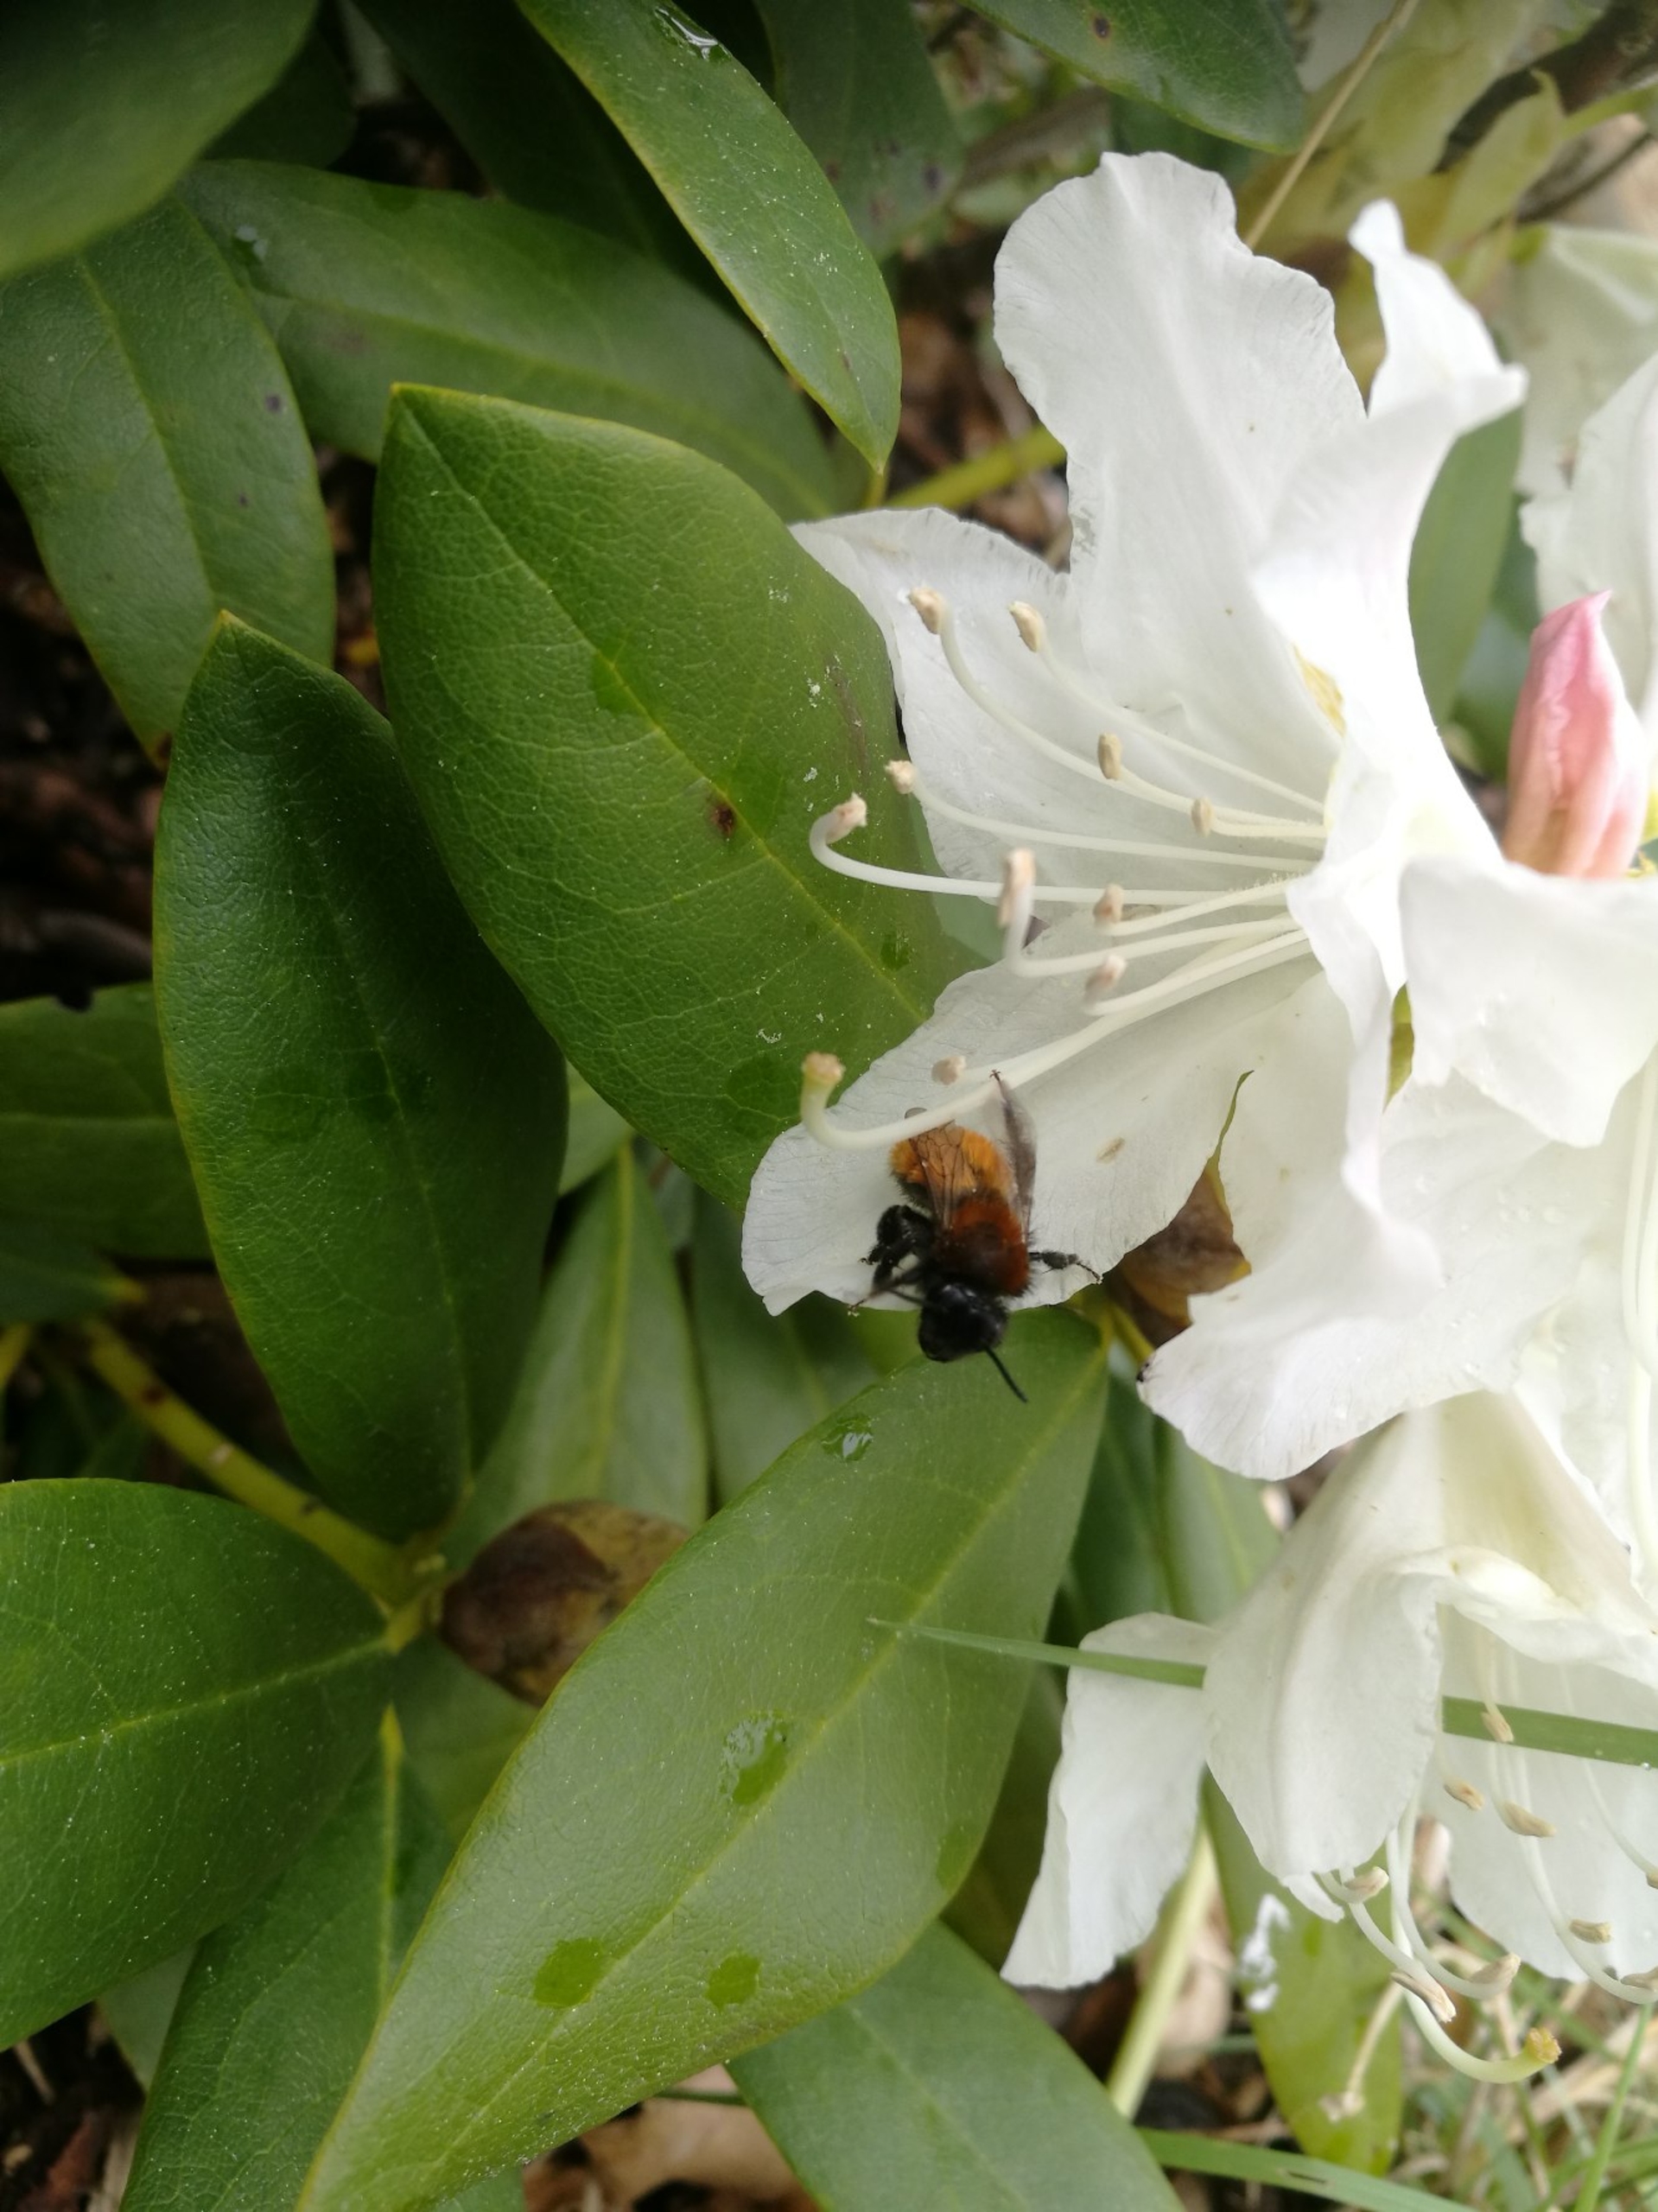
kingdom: Animalia
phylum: Arthropoda
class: Insecta
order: Hymenoptera
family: Andrenidae
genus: Andrena
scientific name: Andrena fulva
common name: Rødpelset jordbi
